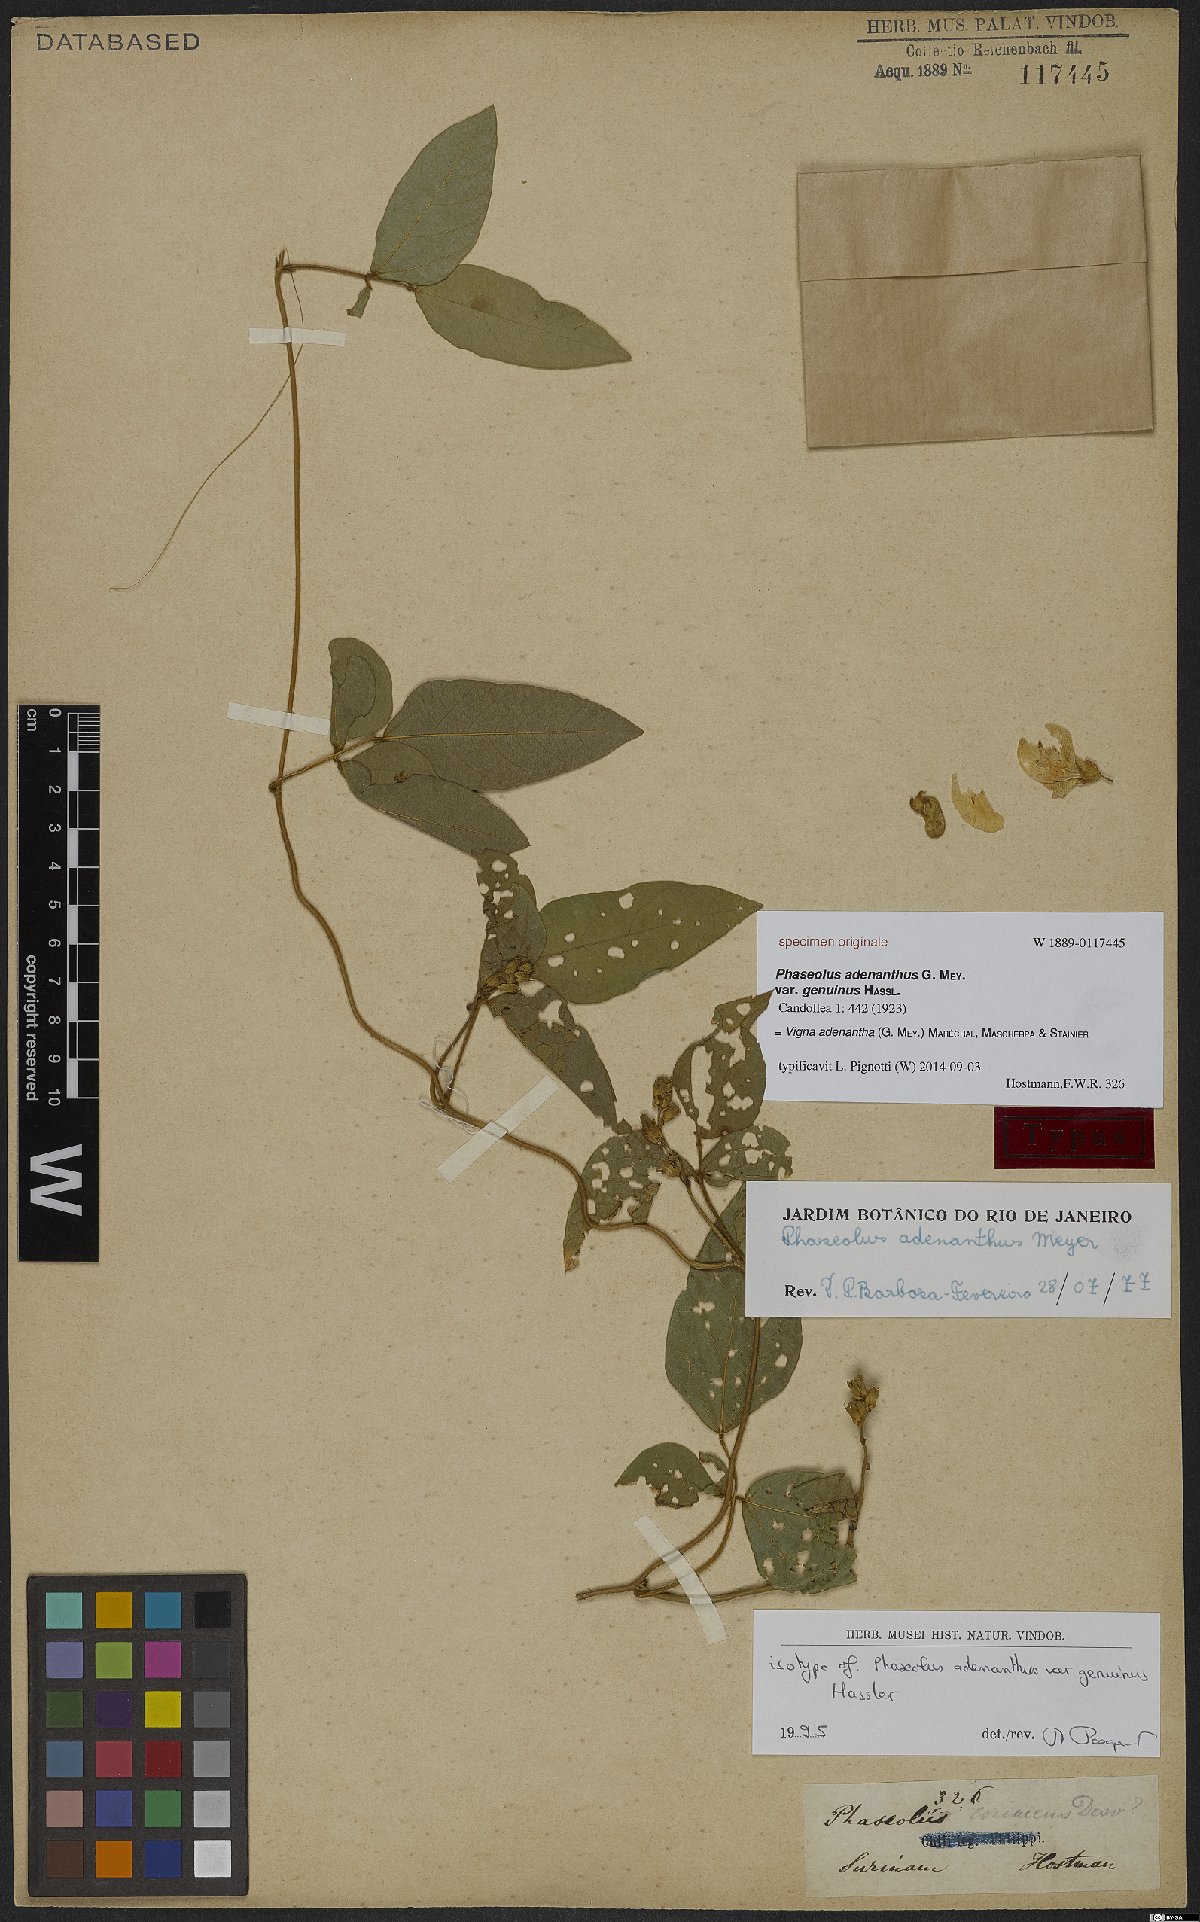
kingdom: Plantae
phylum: Tracheophyta
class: Magnoliopsida
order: Fabales
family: Fabaceae
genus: Leptospron
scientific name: Leptospron adenanthum
